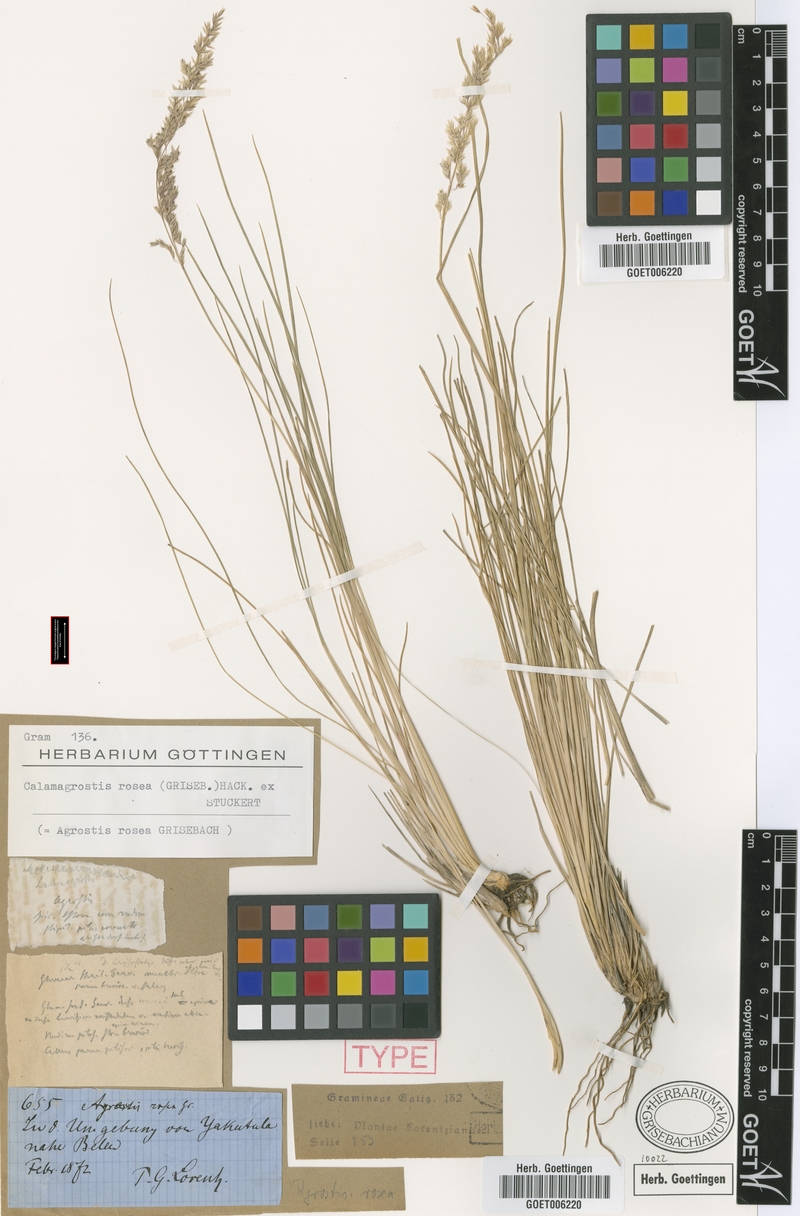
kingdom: Plantae
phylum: Tracheophyta
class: Liliopsida
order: Poales
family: Poaceae
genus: Cinnagrostis
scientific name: Cinnagrostis rosea
